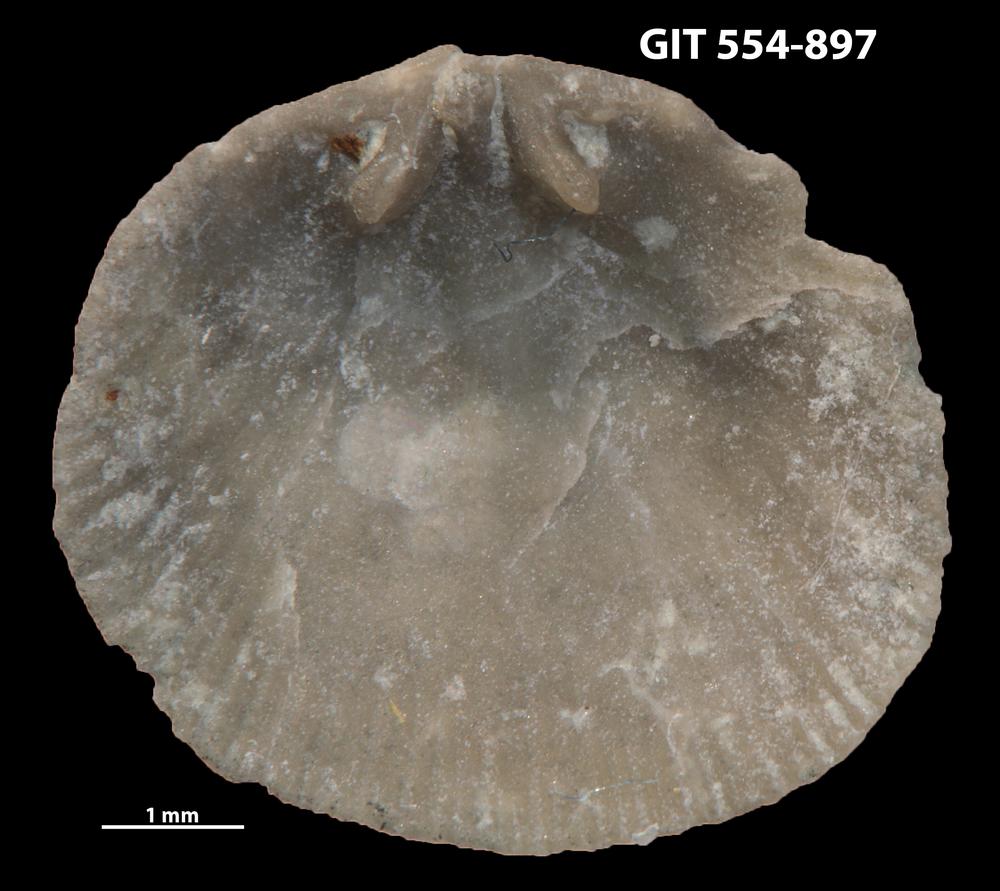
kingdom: Animalia
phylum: Brachiopoda
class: Rhynchonellata
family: Rhipidomellidae
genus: Mendacella
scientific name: Mendacella Orthis hybrida
